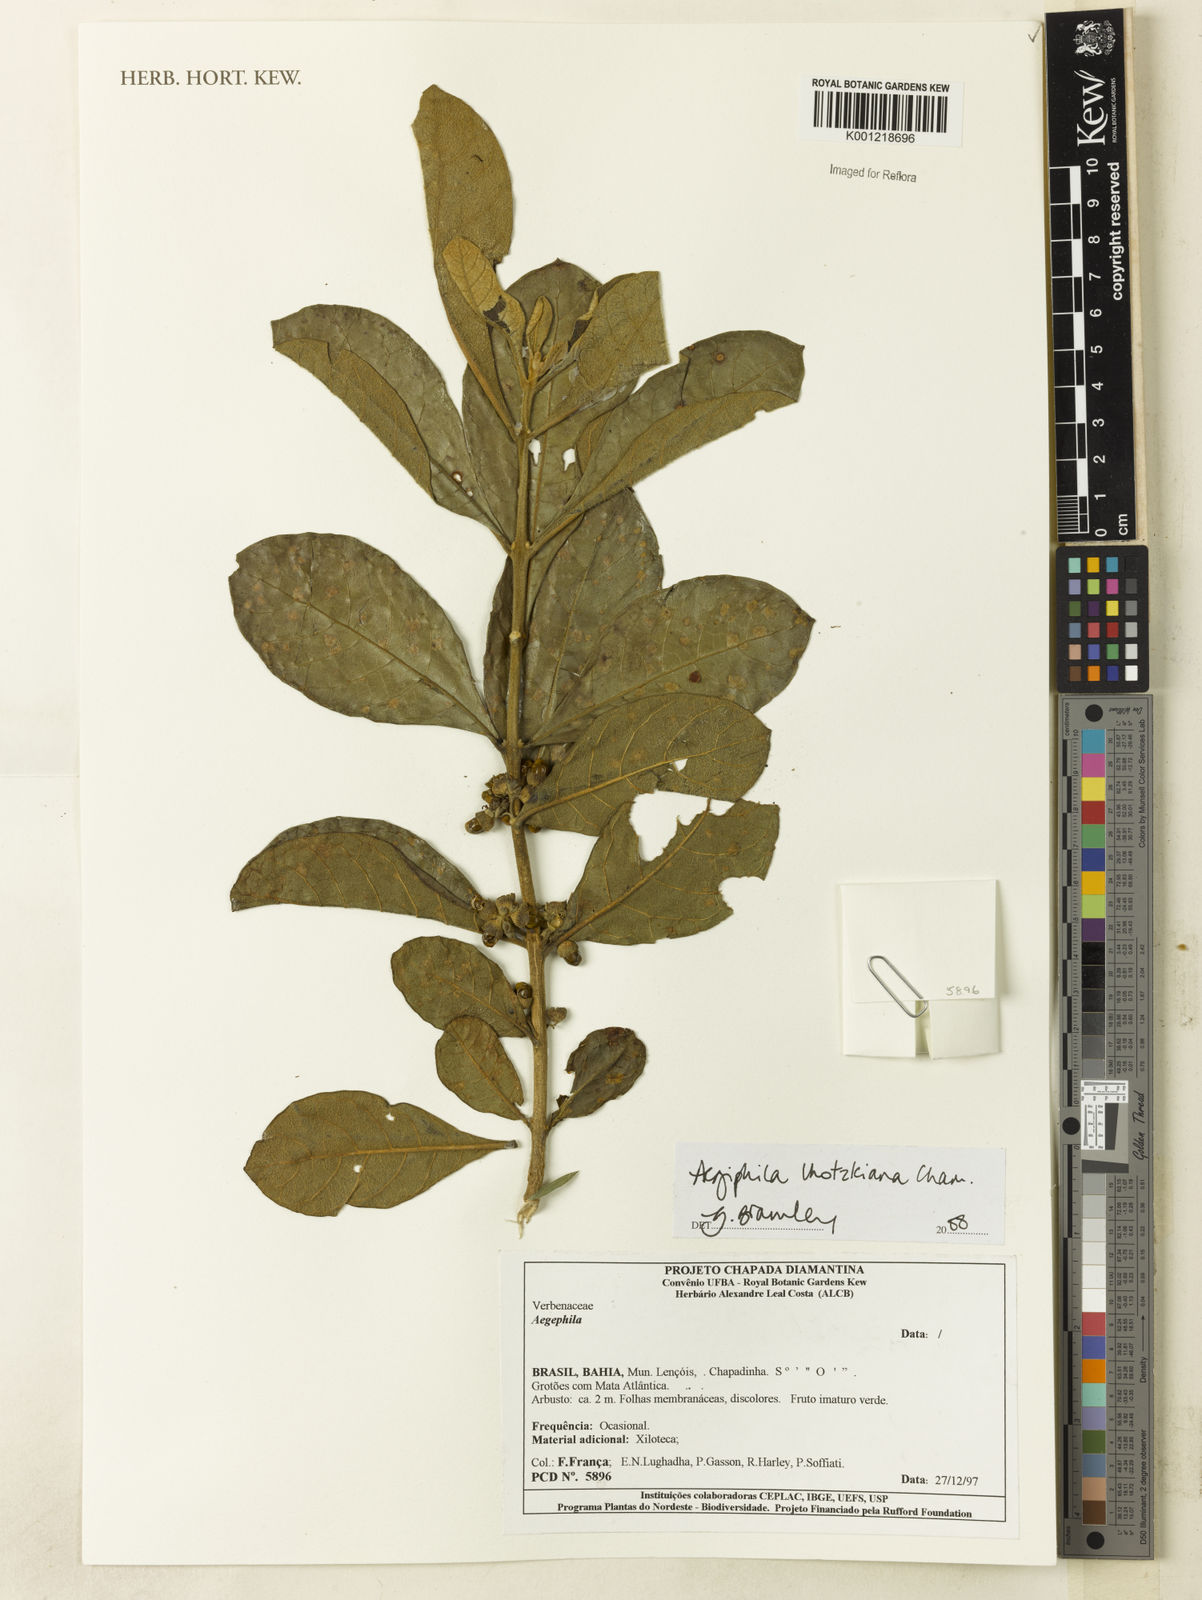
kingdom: Plantae
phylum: Tracheophyta
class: Magnoliopsida
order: Lamiales
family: Lamiaceae
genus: Aegiphila
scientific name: Aegiphila verticillata
